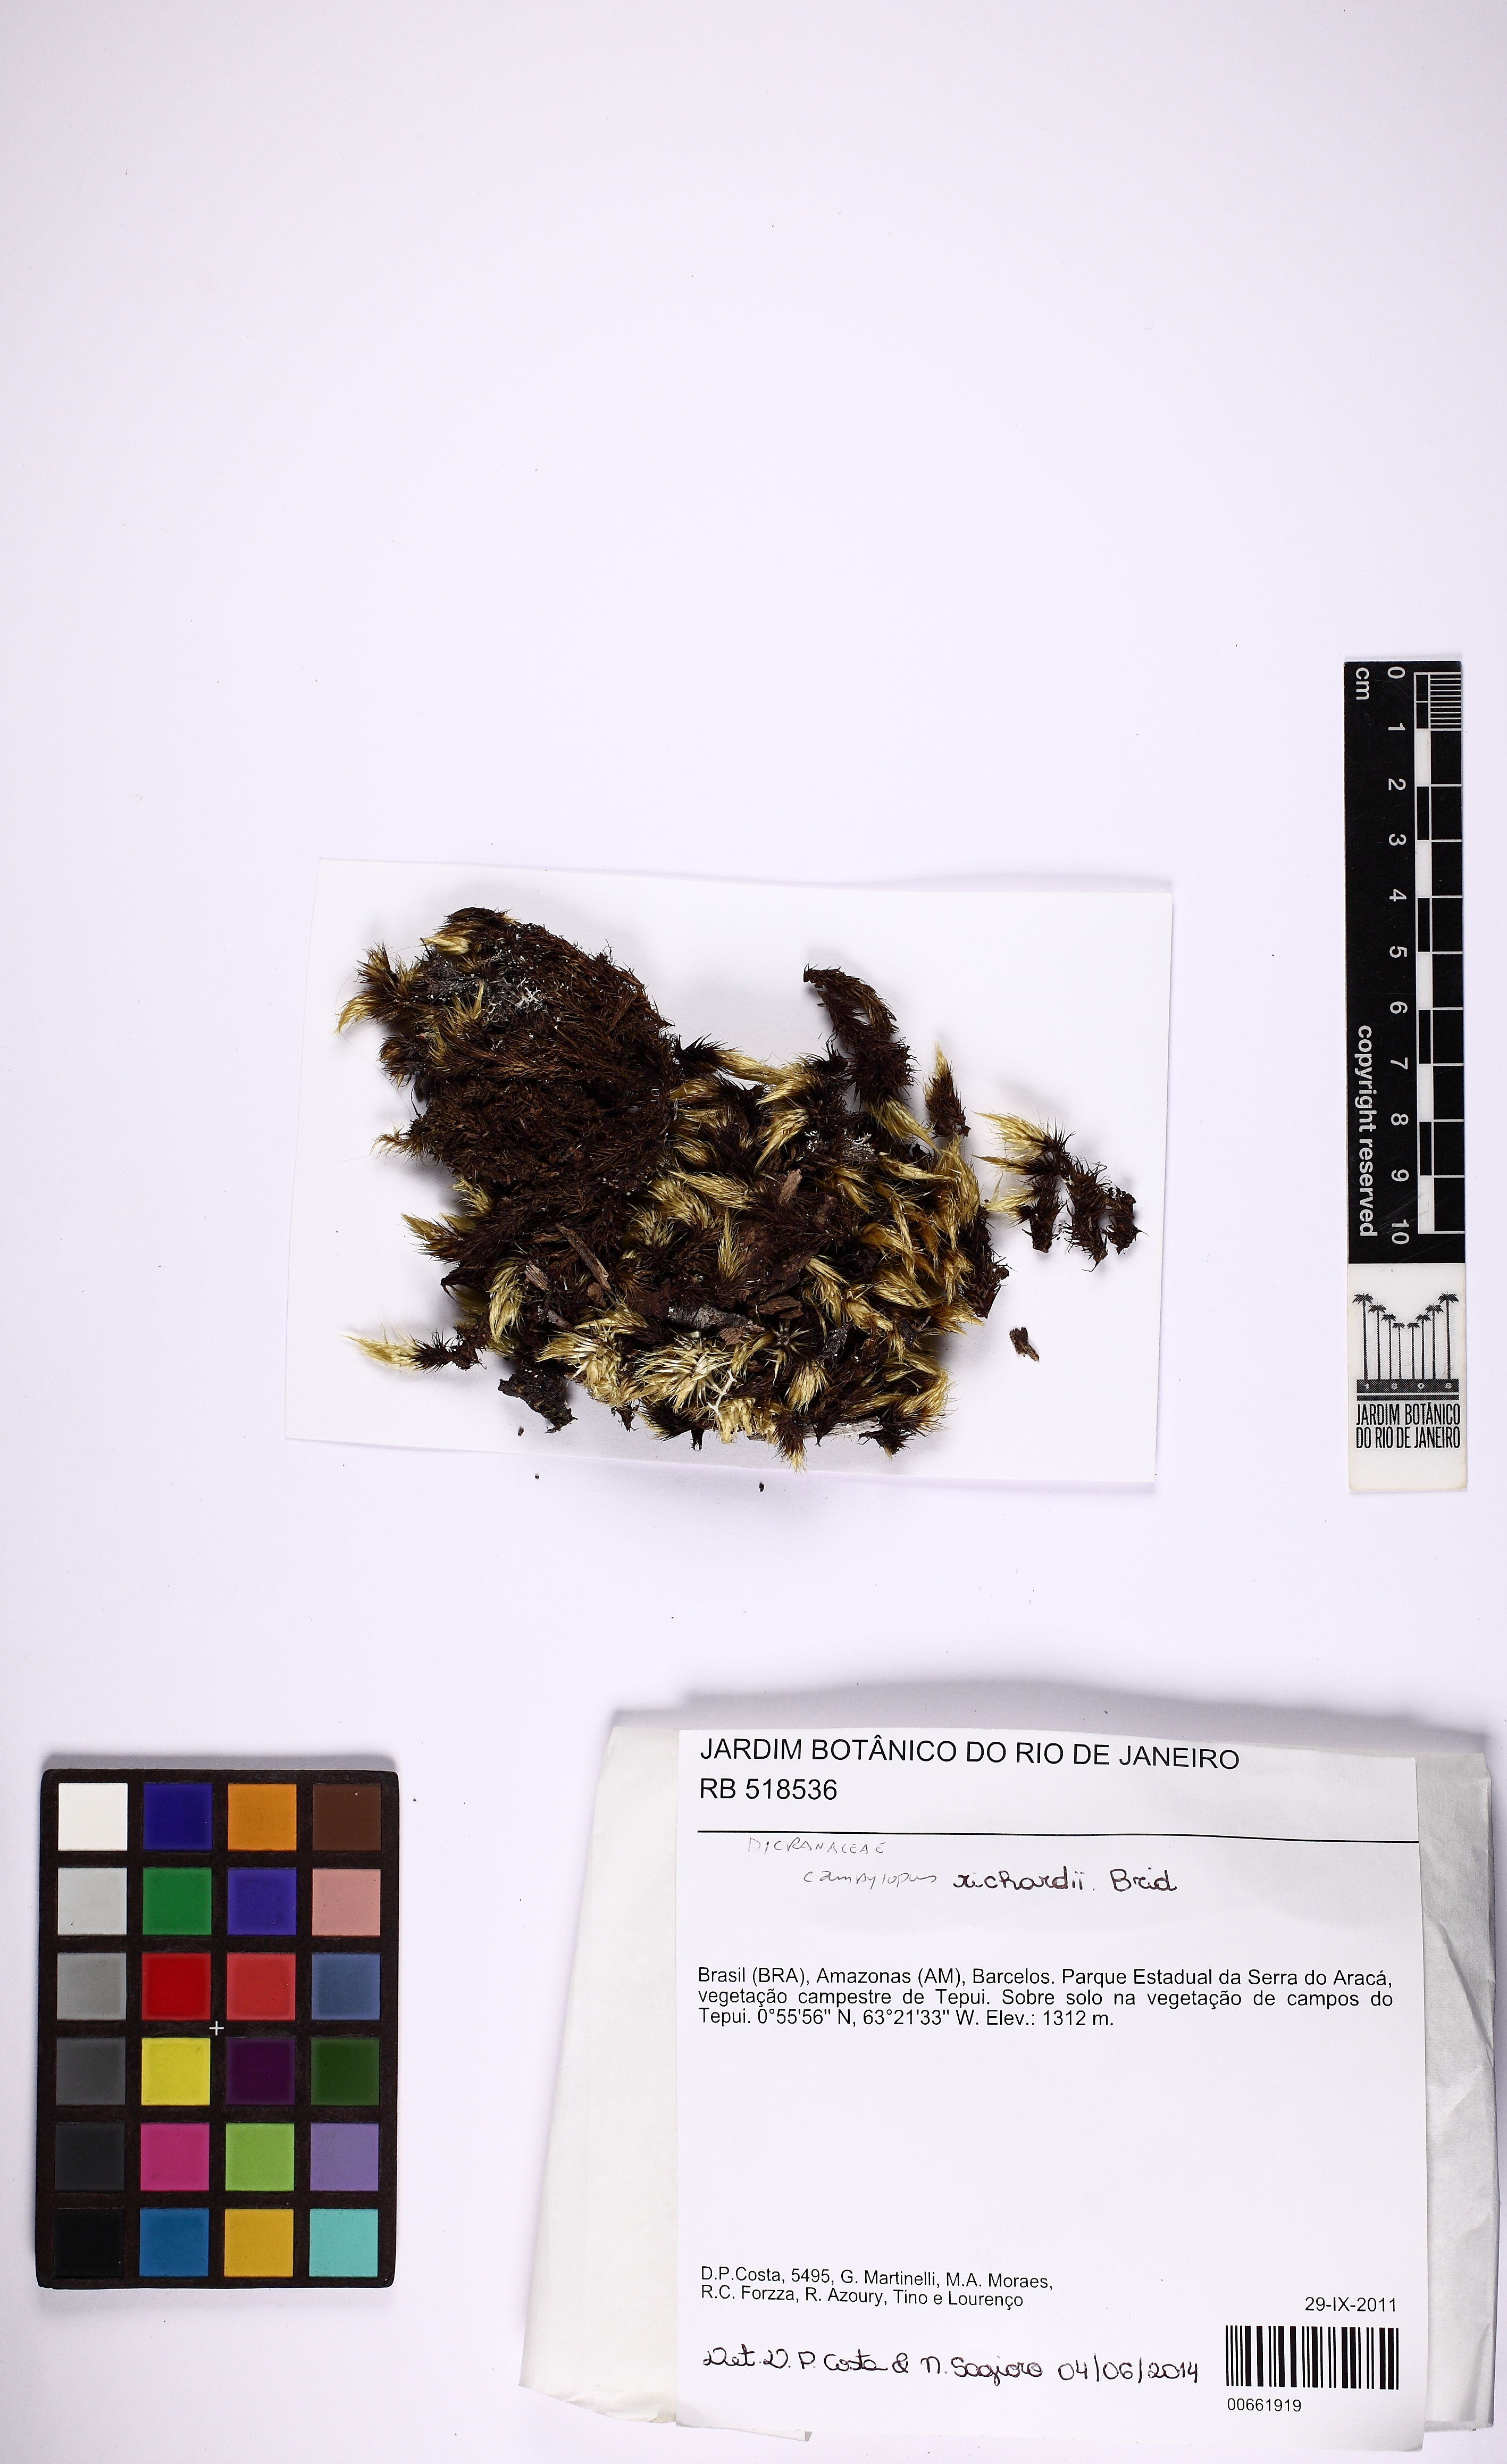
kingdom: Plantae
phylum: Bryophyta
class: Bryopsida
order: Dicranales
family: Leucobryaceae
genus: Campylopus
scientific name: Campylopus richardii
